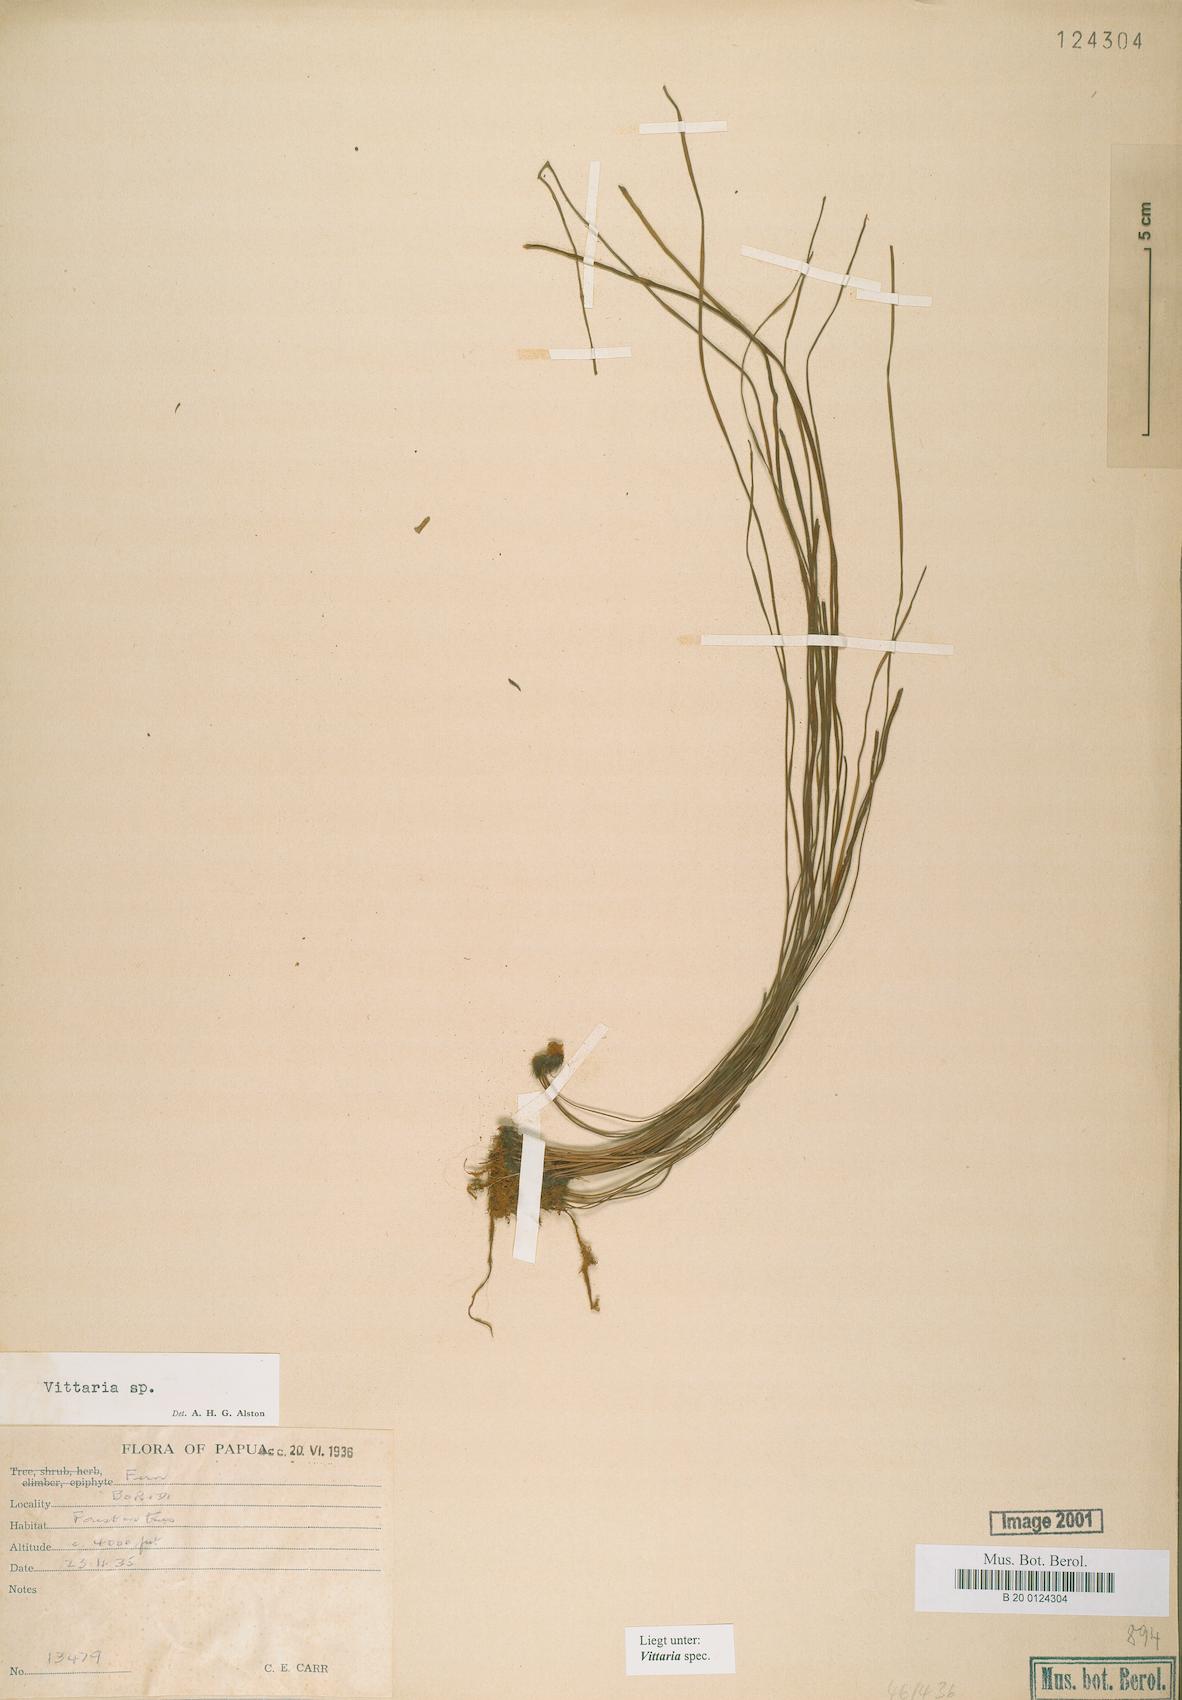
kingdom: Plantae
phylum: Tracheophyta
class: Polypodiopsida
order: Polypodiales
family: Pteridaceae
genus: Vittaria
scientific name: Vittaria
